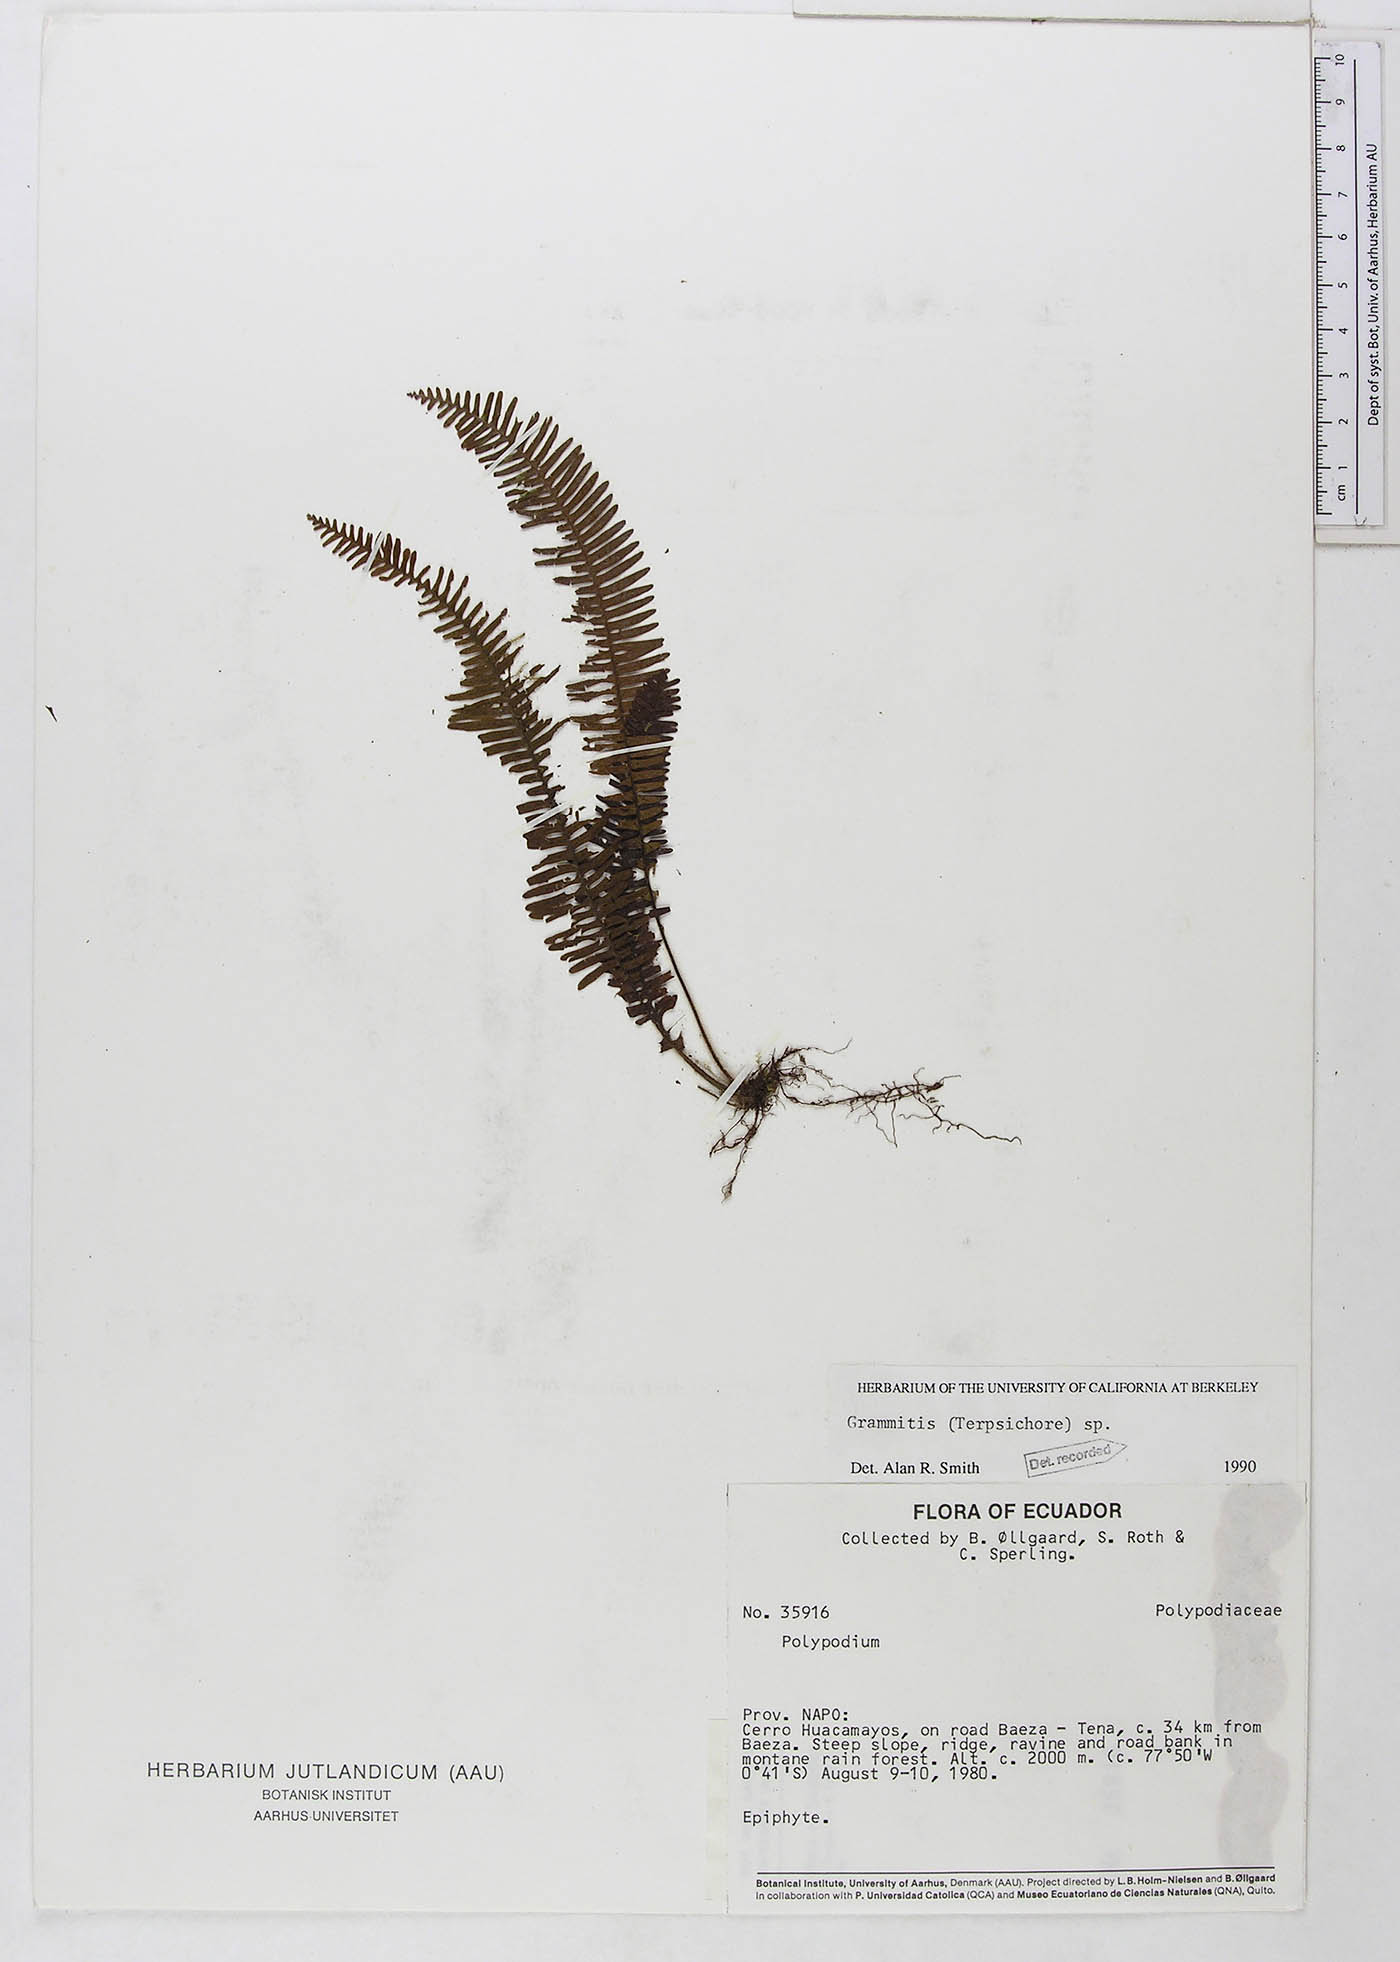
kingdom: Plantae
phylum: Tracheophyta
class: Polypodiopsida
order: Polypodiales
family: Polypodiaceae
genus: Grammitis
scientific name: Grammitis
